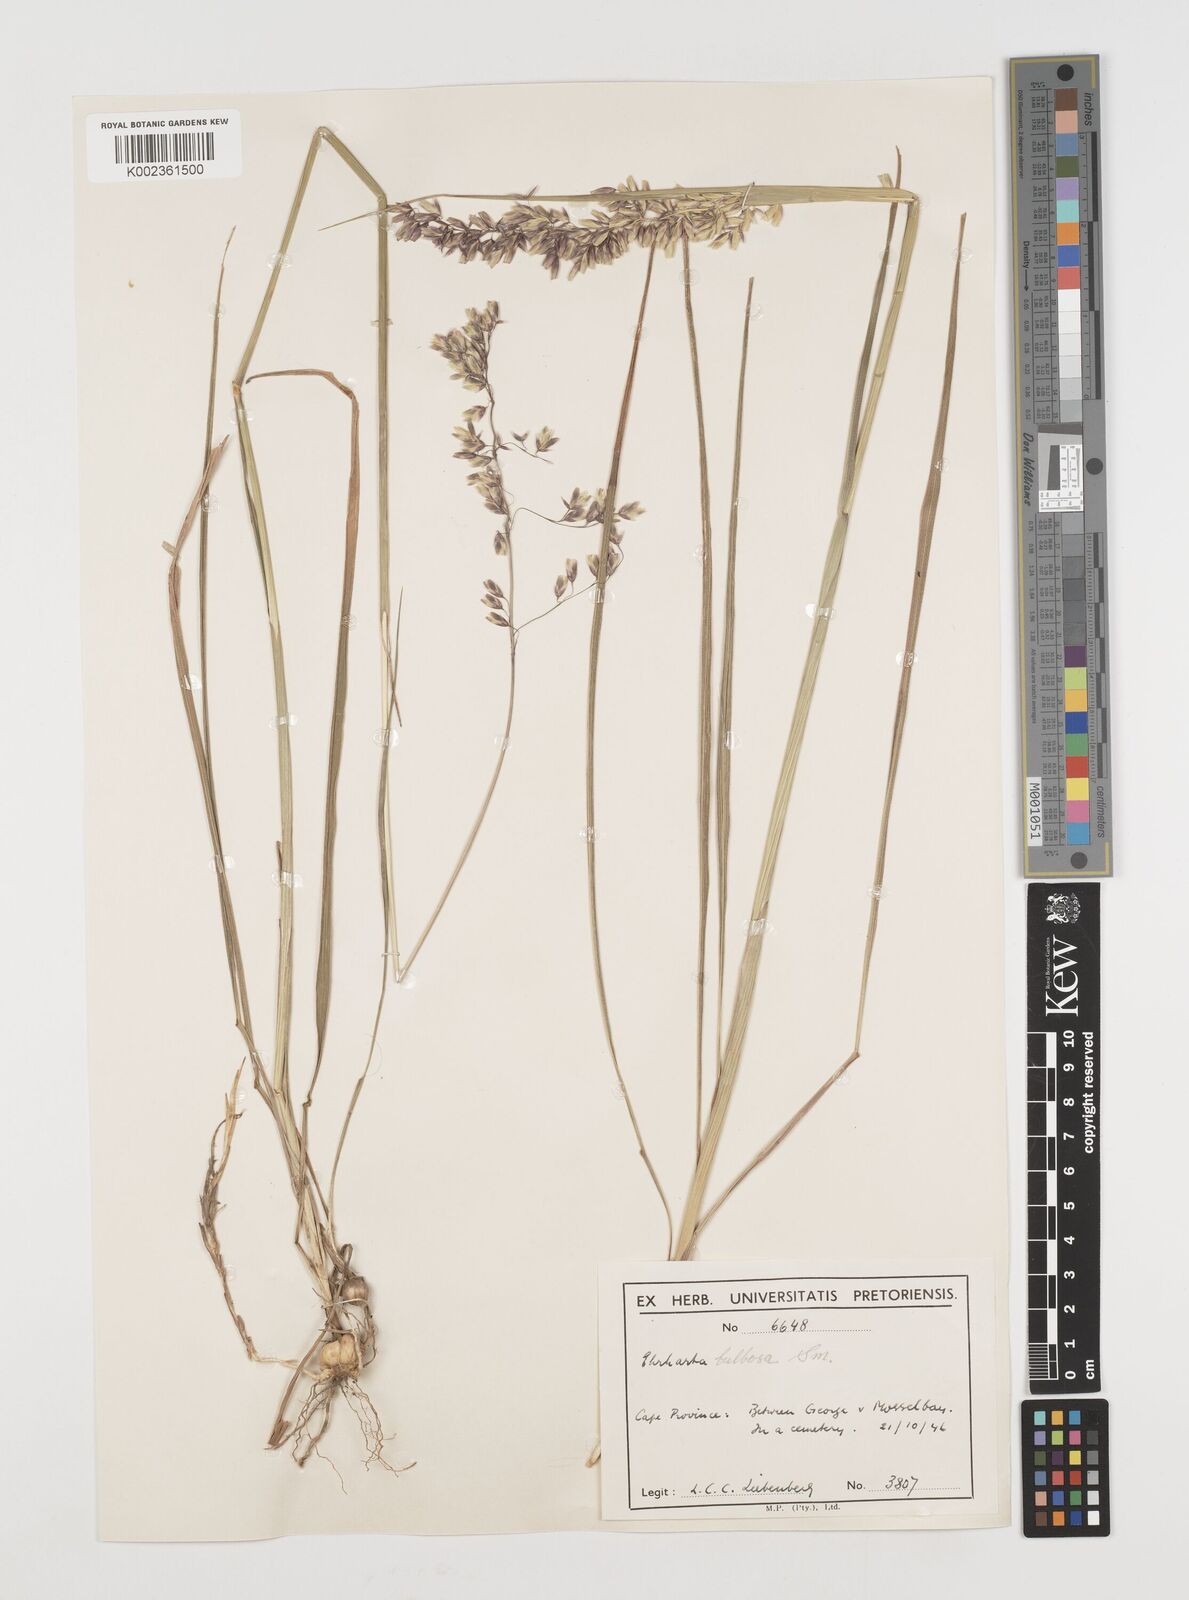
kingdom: Plantae
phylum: Tracheophyta
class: Liliopsida
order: Poales
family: Poaceae
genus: Ehrharta
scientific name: Ehrharta bulbosa
